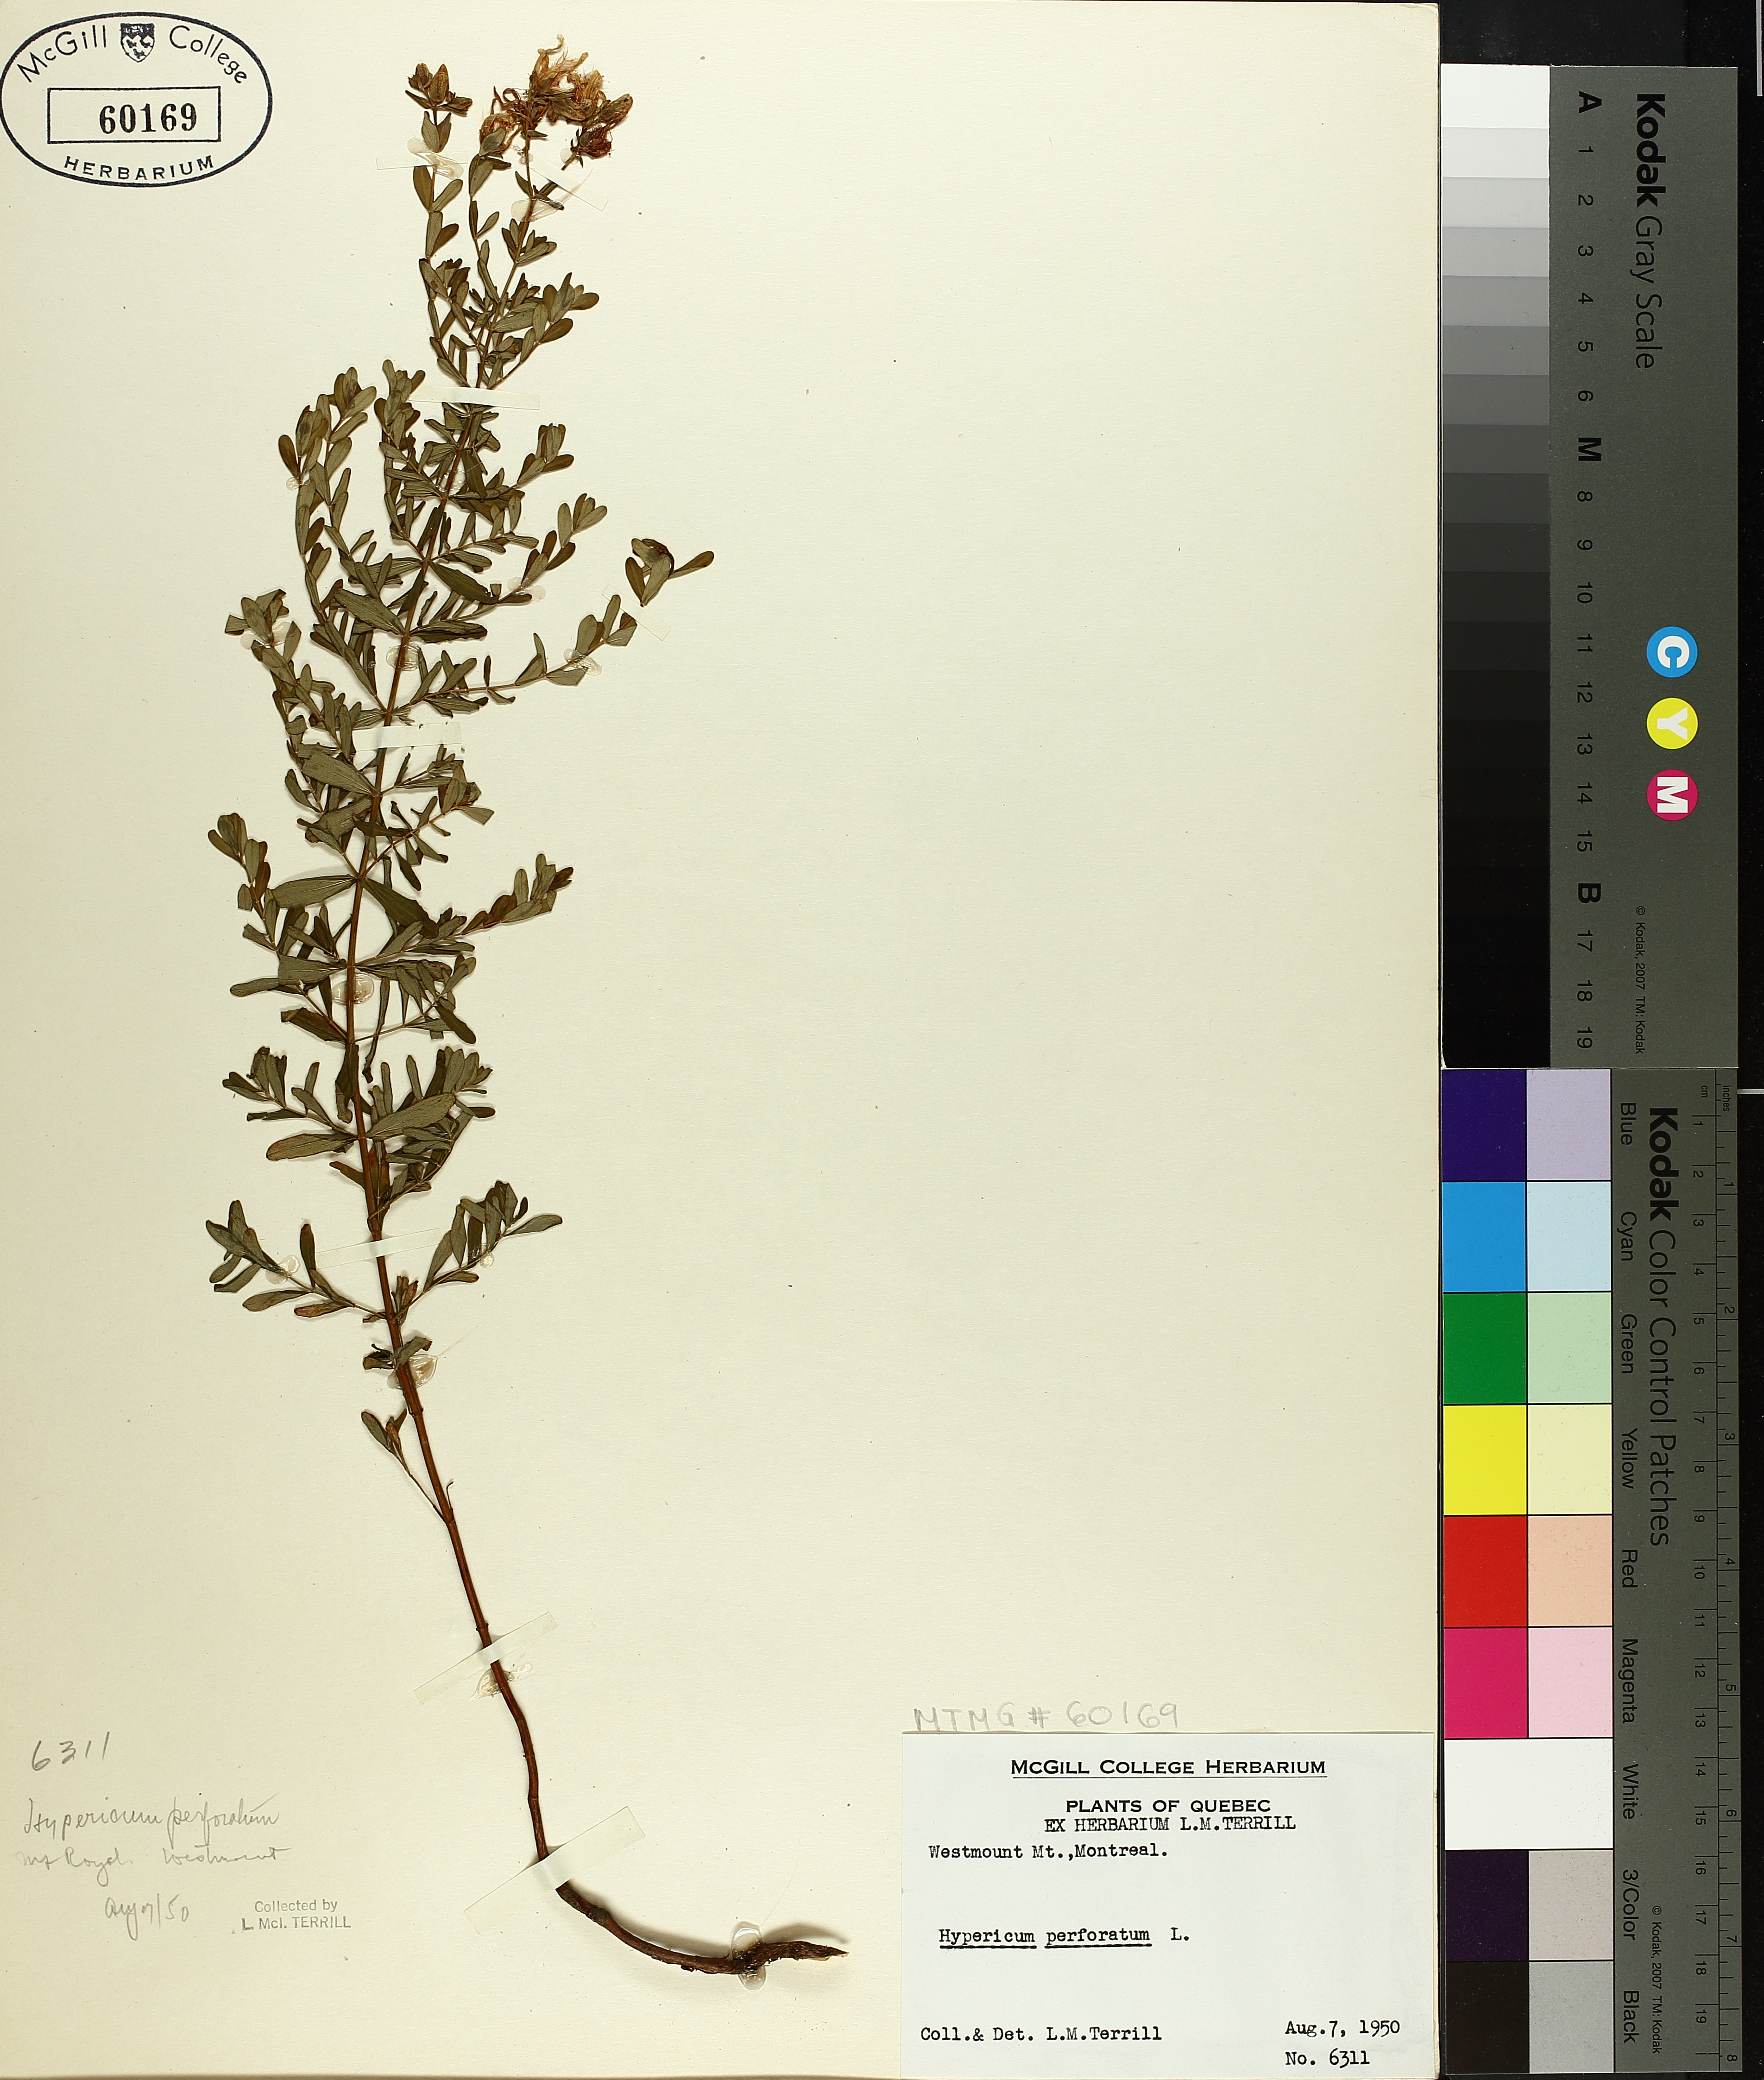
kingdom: Plantae
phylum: Tracheophyta
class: Magnoliopsida
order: Malpighiales
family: Hypericaceae
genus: Hypericum
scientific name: Hypericum perforatum
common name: Common st. johnswort
